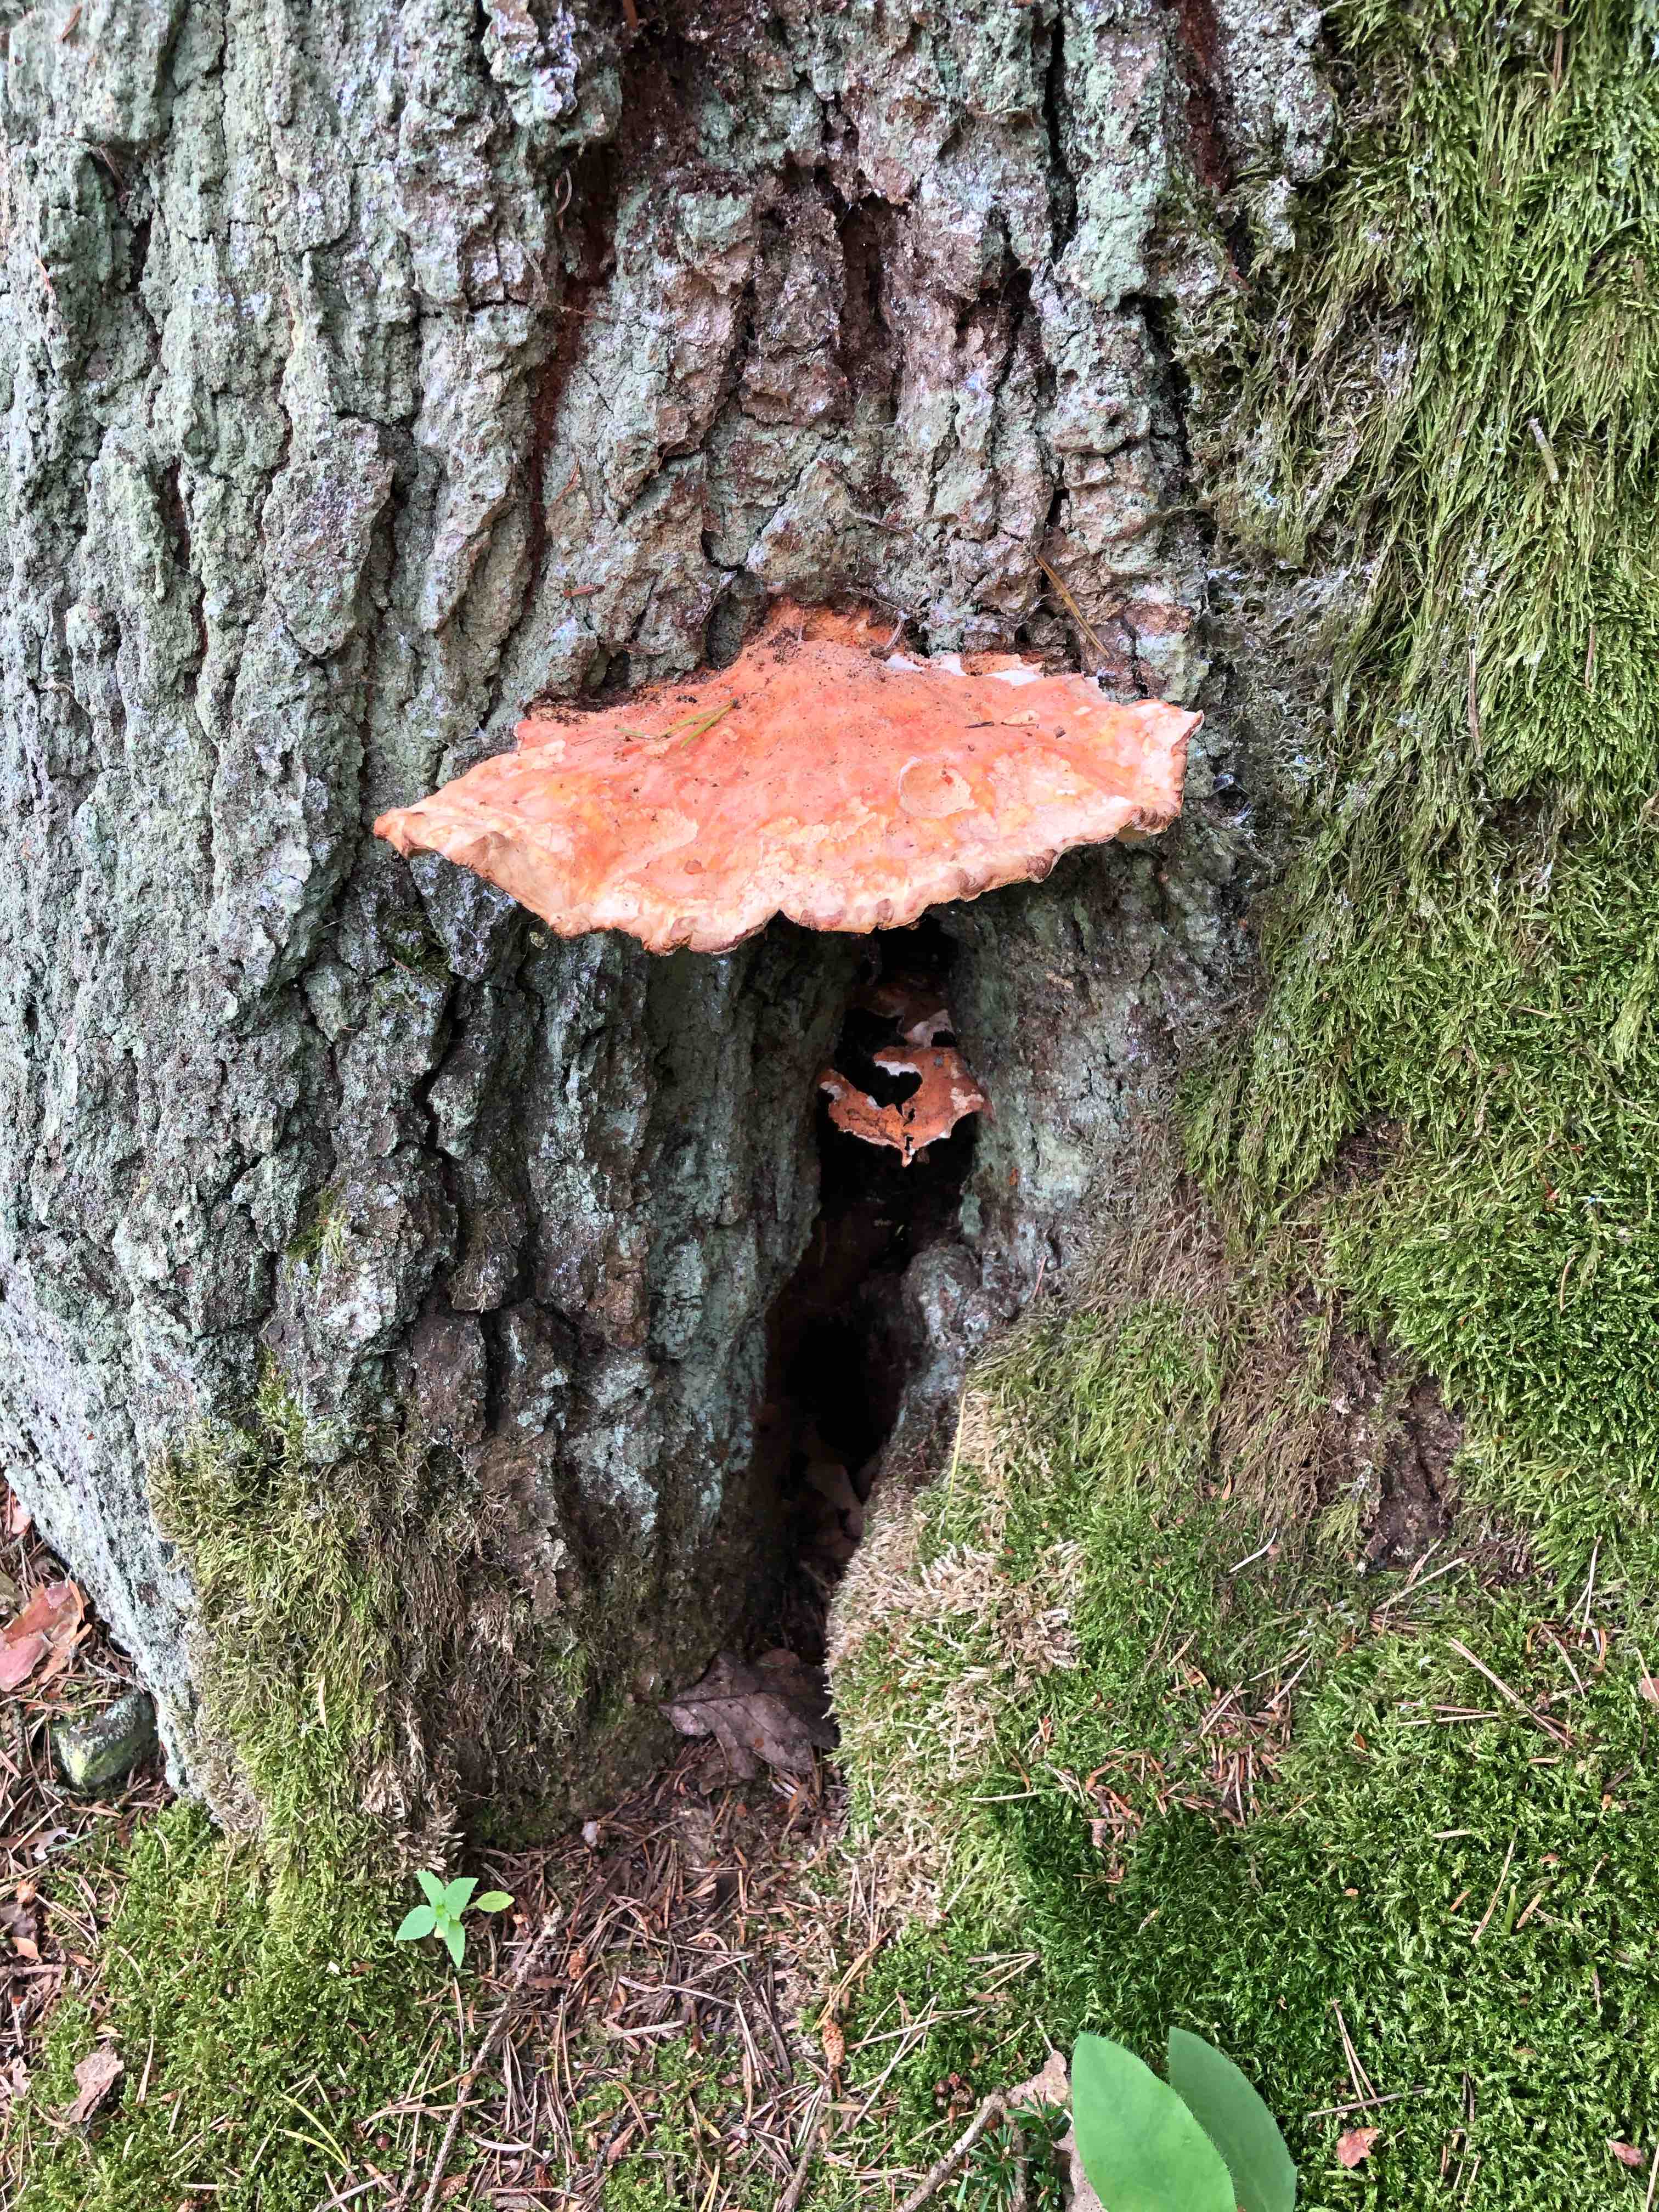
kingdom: Fungi
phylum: Basidiomycota
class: Agaricomycetes
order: Polyporales
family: Laetiporaceae
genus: Laetiporus
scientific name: Laetiporus
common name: svovlporesvamp
